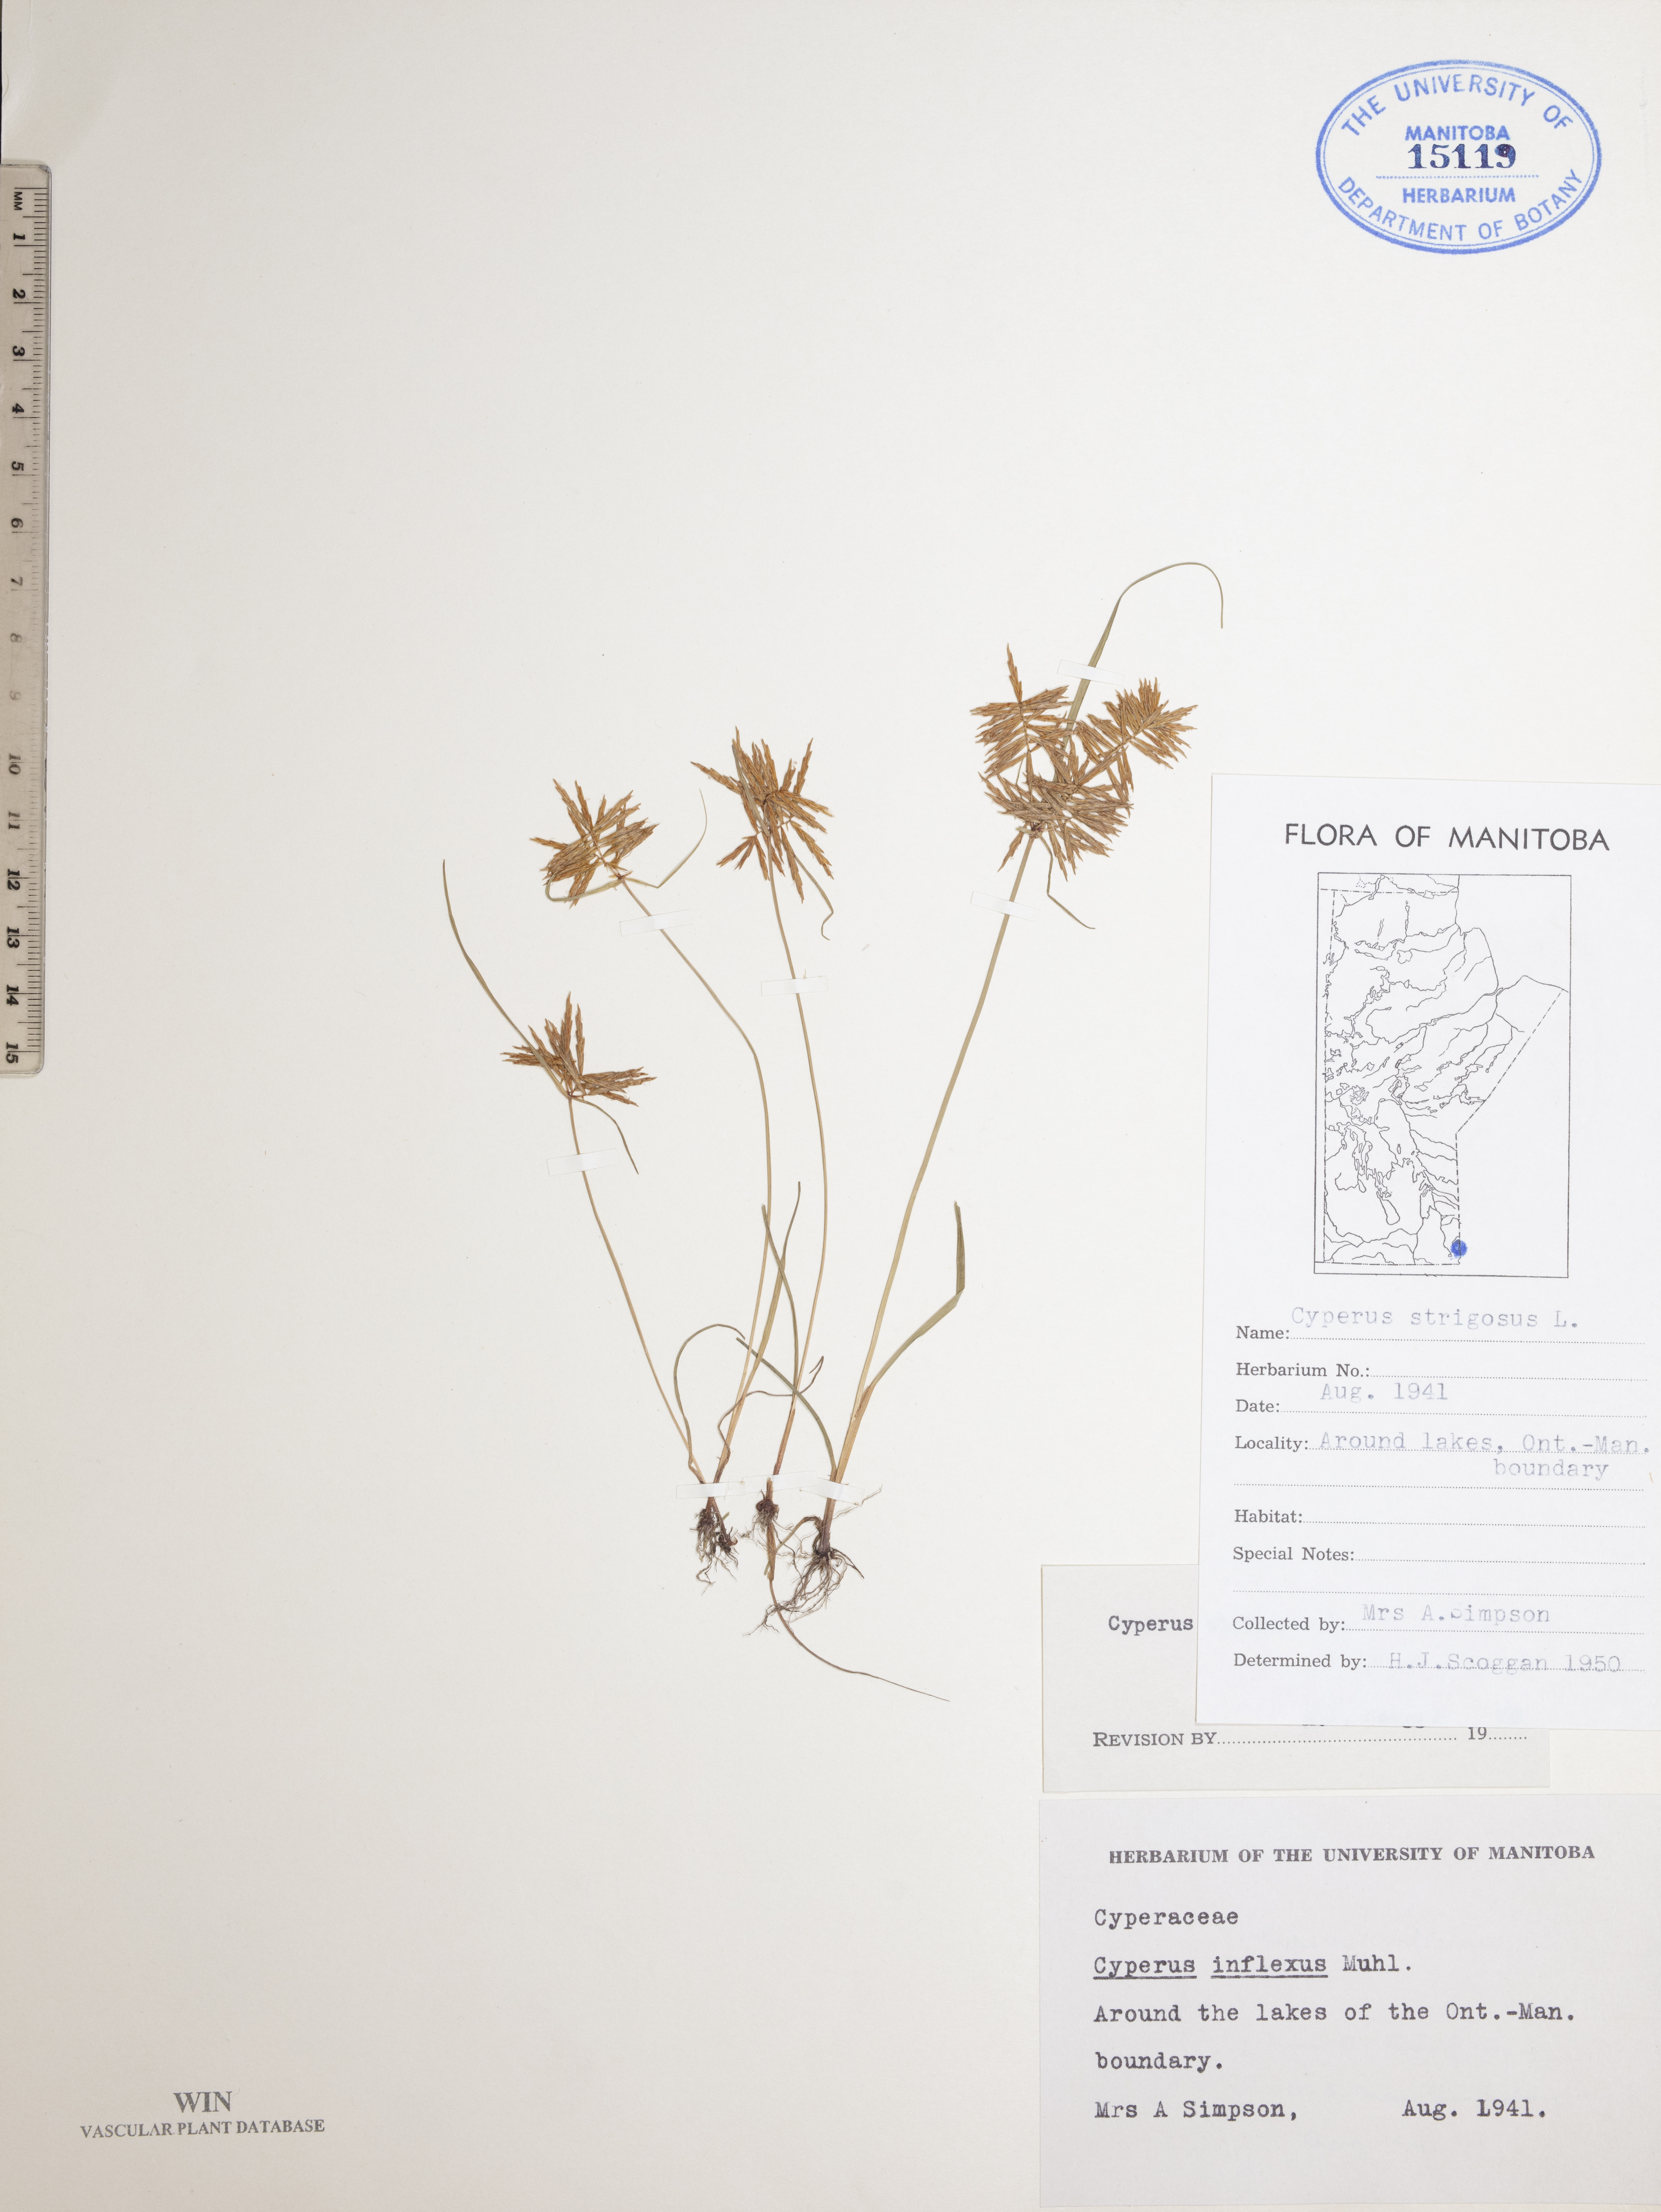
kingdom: Plantae
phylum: Tracheophyta
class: Liliopsida
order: Poales
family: Cyperaceae
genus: Cyperus
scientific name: Cyperus strigosus
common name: False nutsedge
